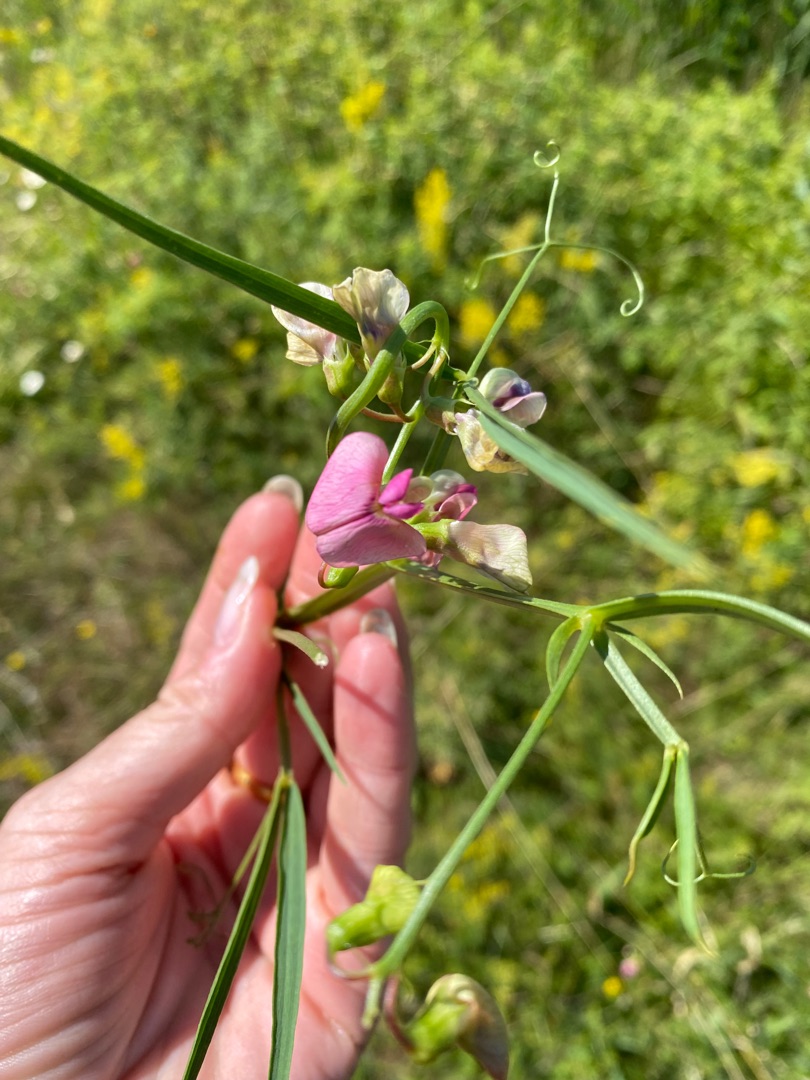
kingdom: Plantae
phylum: Tracheophyta
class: Magnoliopsida
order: Fabales
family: Fabaceae
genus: Lathyrus
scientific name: Lathyrus sylvestris
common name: Skov-fladbælg
